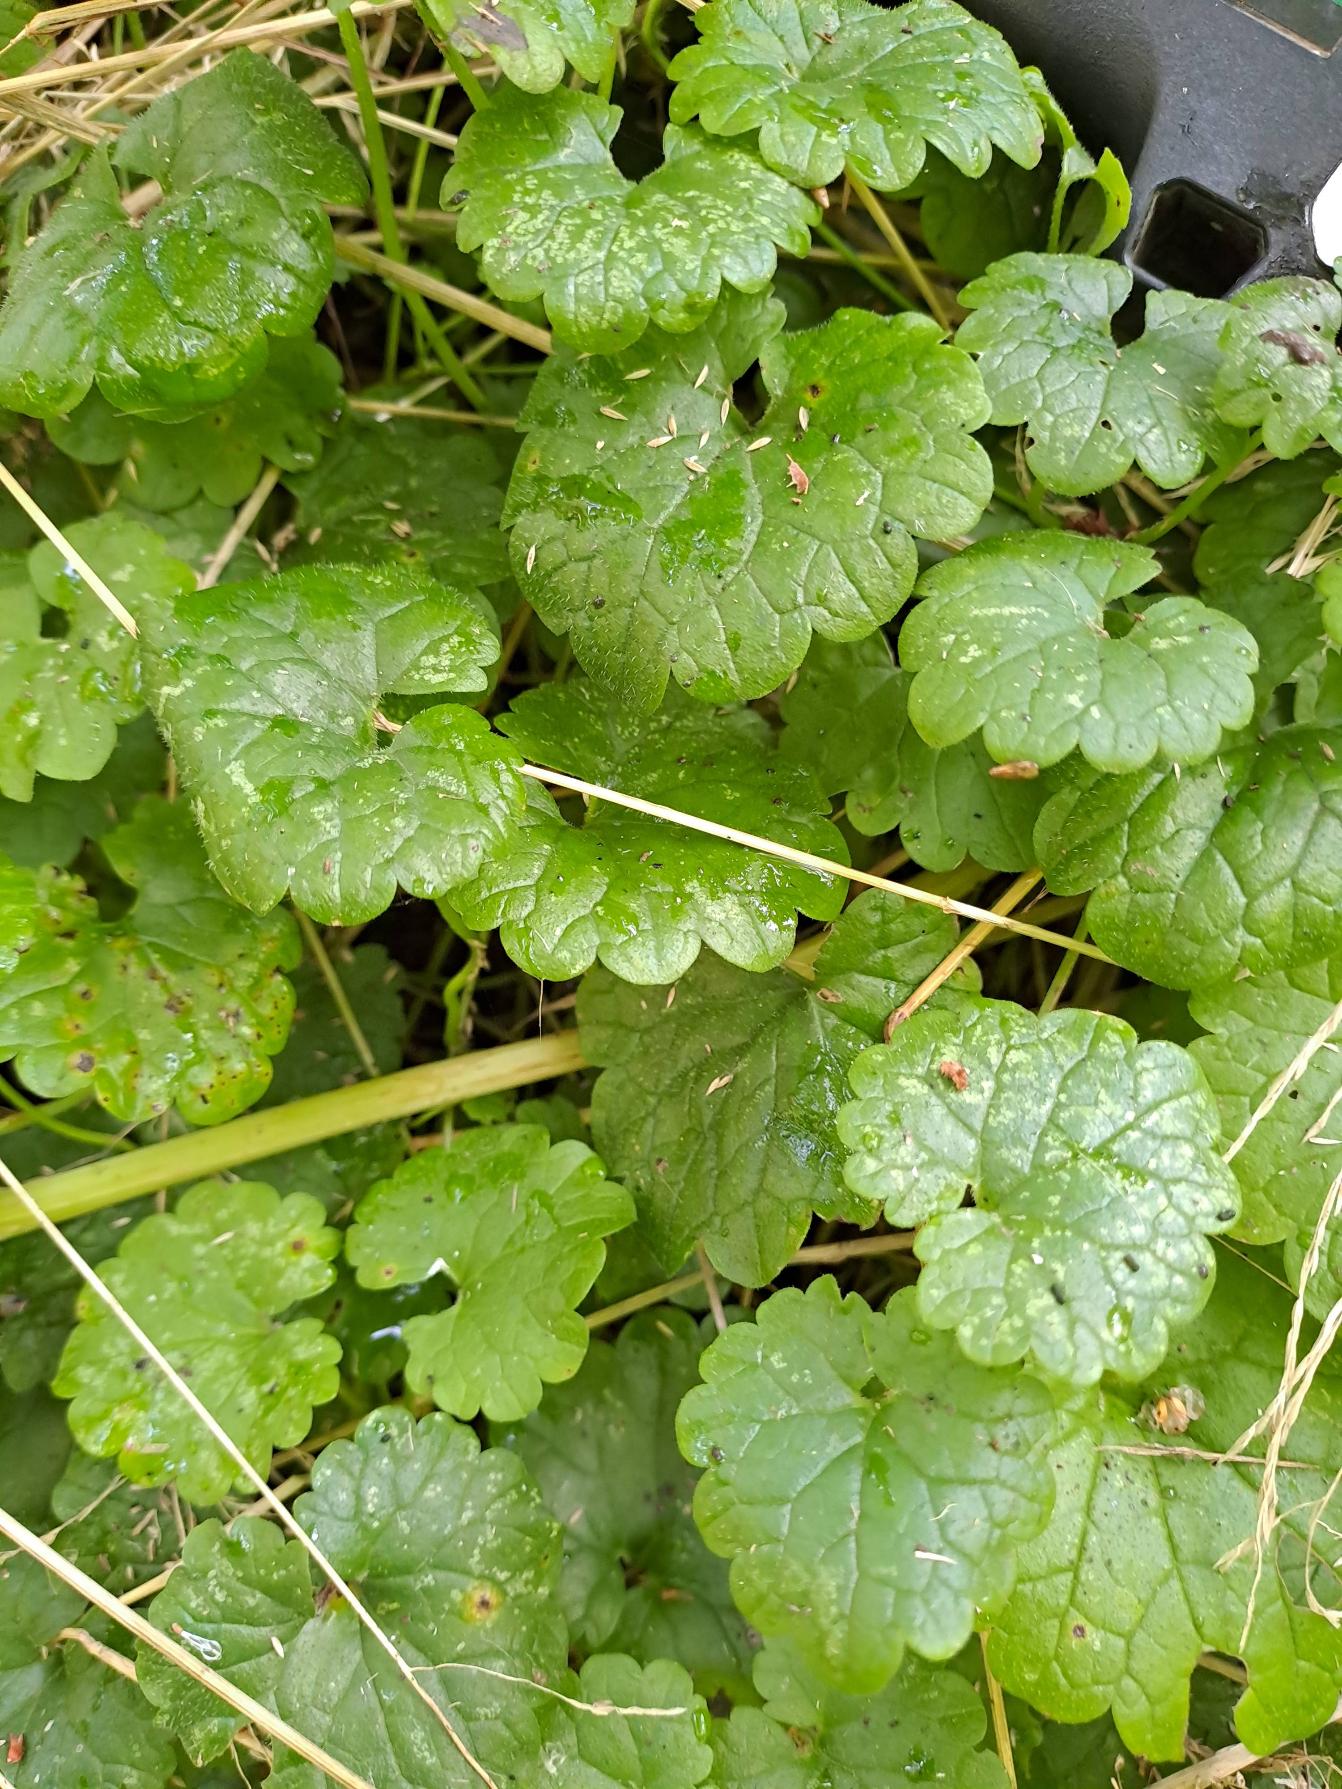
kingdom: Plantae
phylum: Tracheophyta
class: Magnoliopsida
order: Lamiales
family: Lamiaceae
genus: Glechoma
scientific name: Glechoma hederacea
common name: Korsknap
